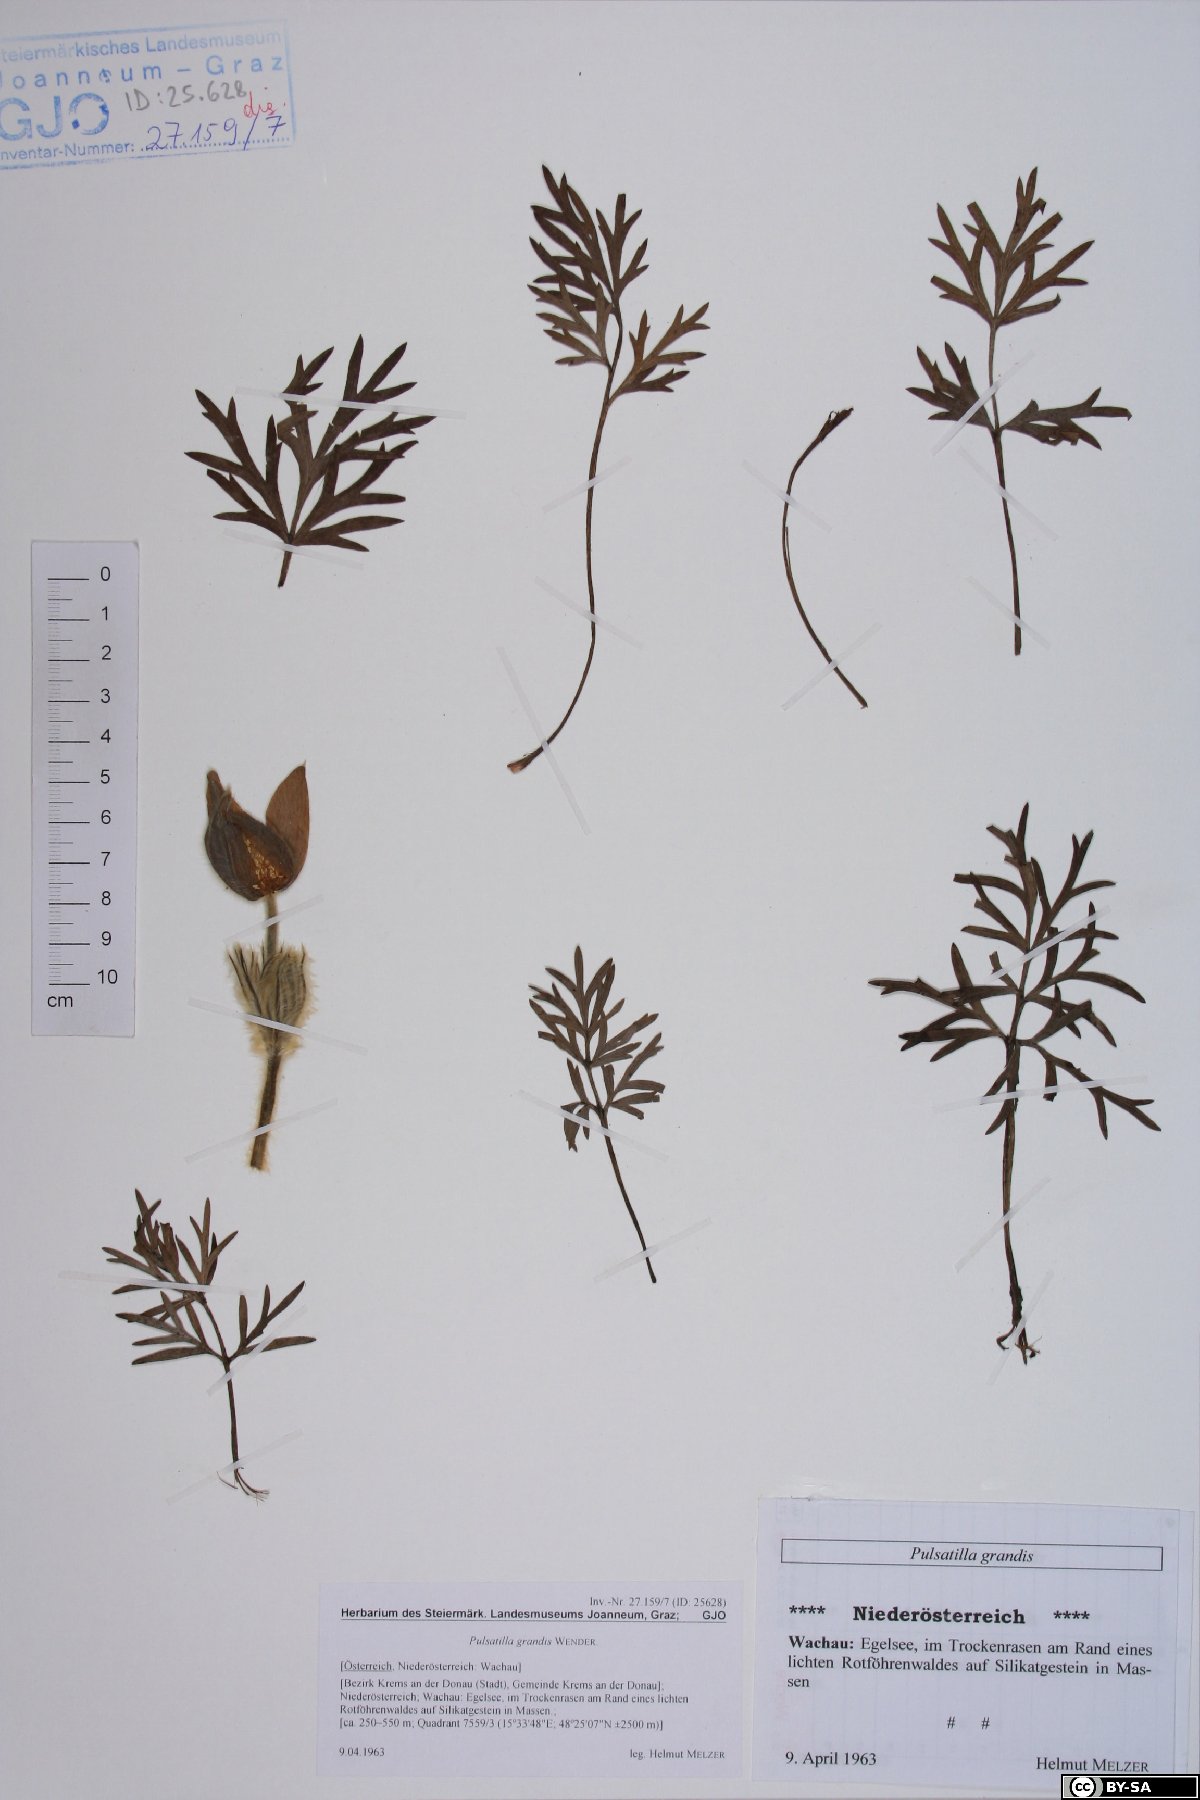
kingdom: Plantae
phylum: Tracheophyta
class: Magnoliopsida
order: Ranunculales
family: Ranunculaceae
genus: Pulsatilla
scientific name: Pulsatilla grandis
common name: Greater pasque flower
